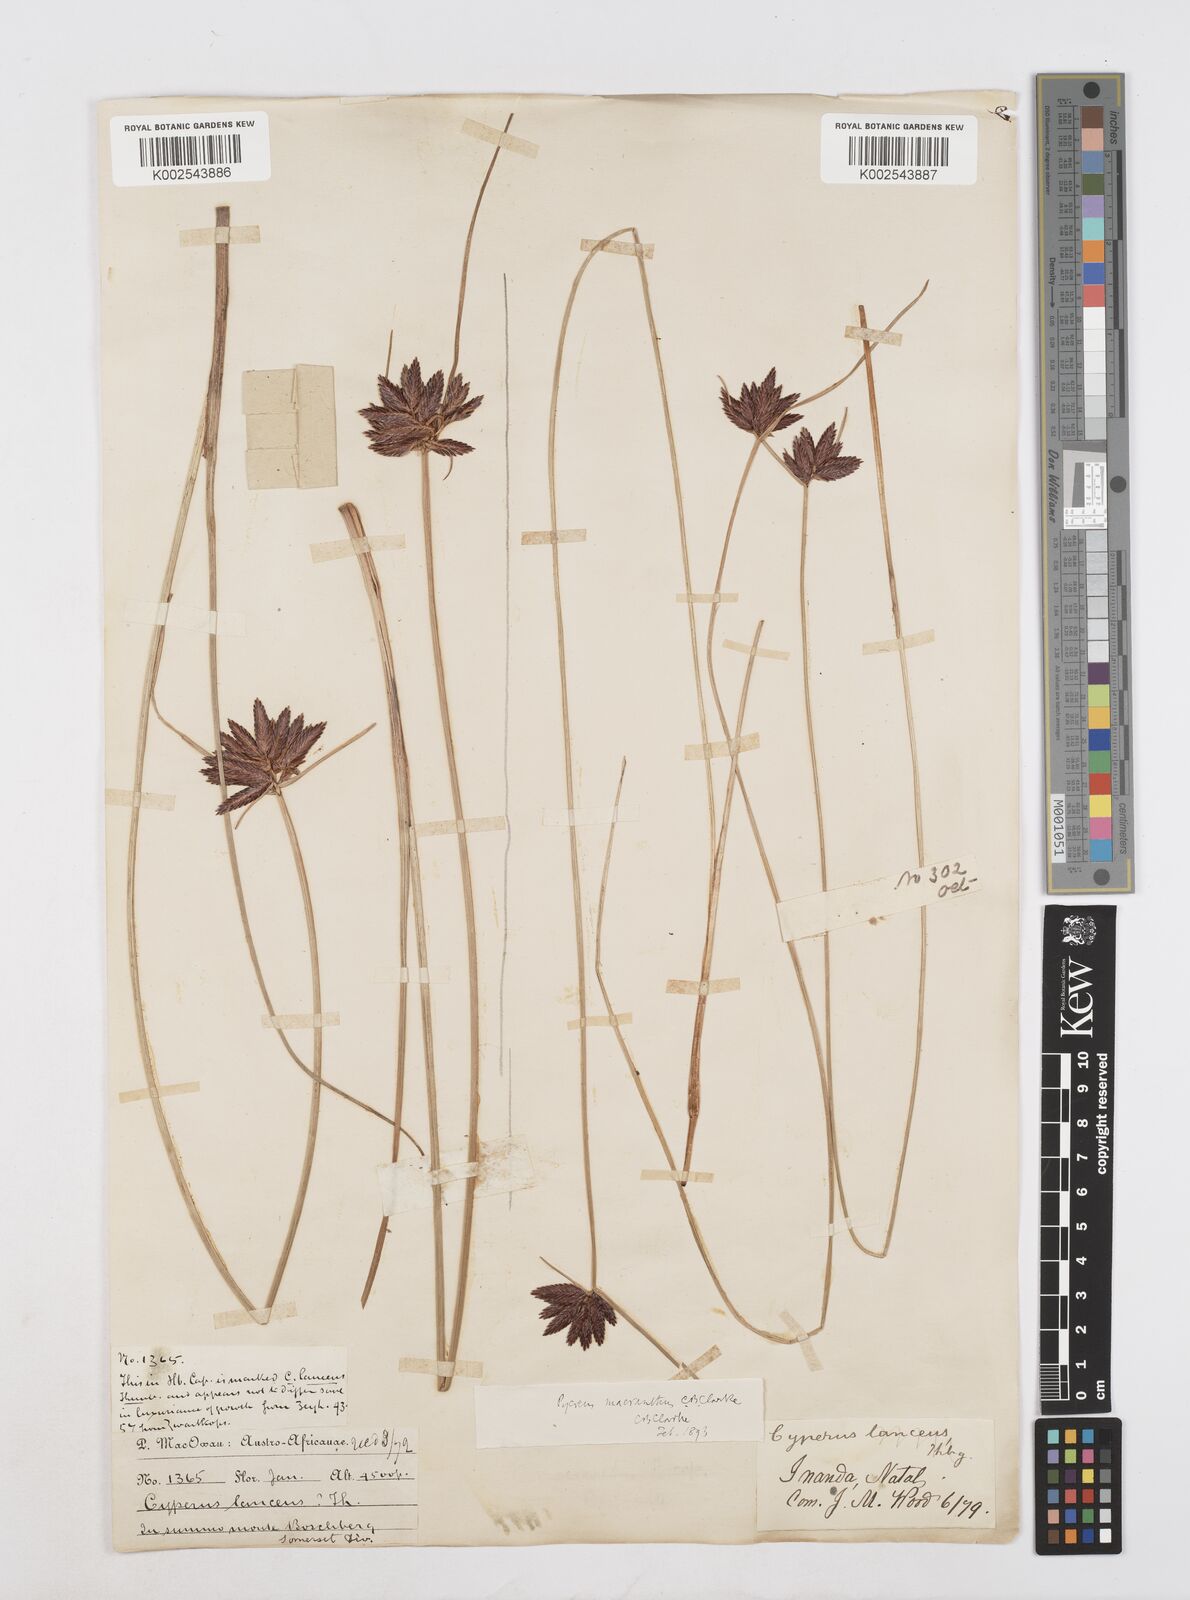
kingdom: Plantae
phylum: Tracheophyta
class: Liliopsida
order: Poales
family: Cyperaceae
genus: Cyperus
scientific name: Cyperus nigricans
